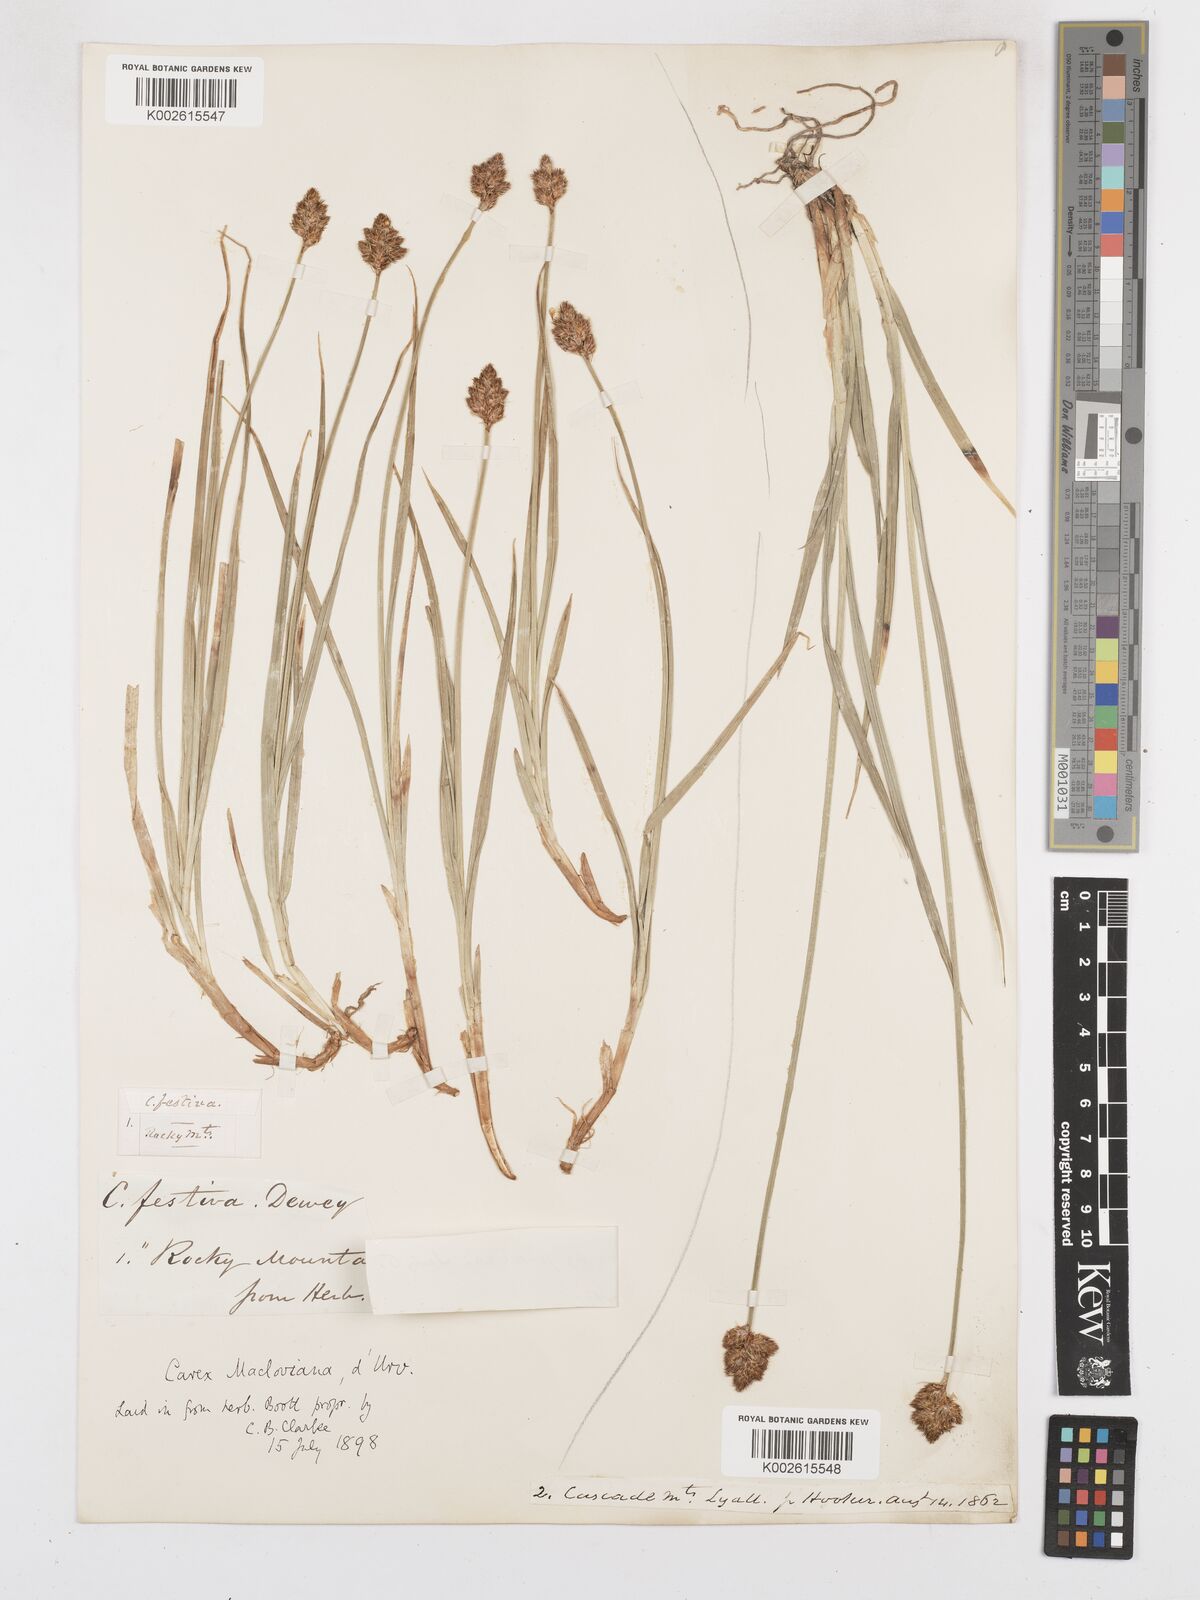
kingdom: Plantae
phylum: Tracheophyta
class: Liliopsida
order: Poales
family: Cyperaceae
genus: Carex
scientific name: Carex subfusca
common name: Brown sedge
